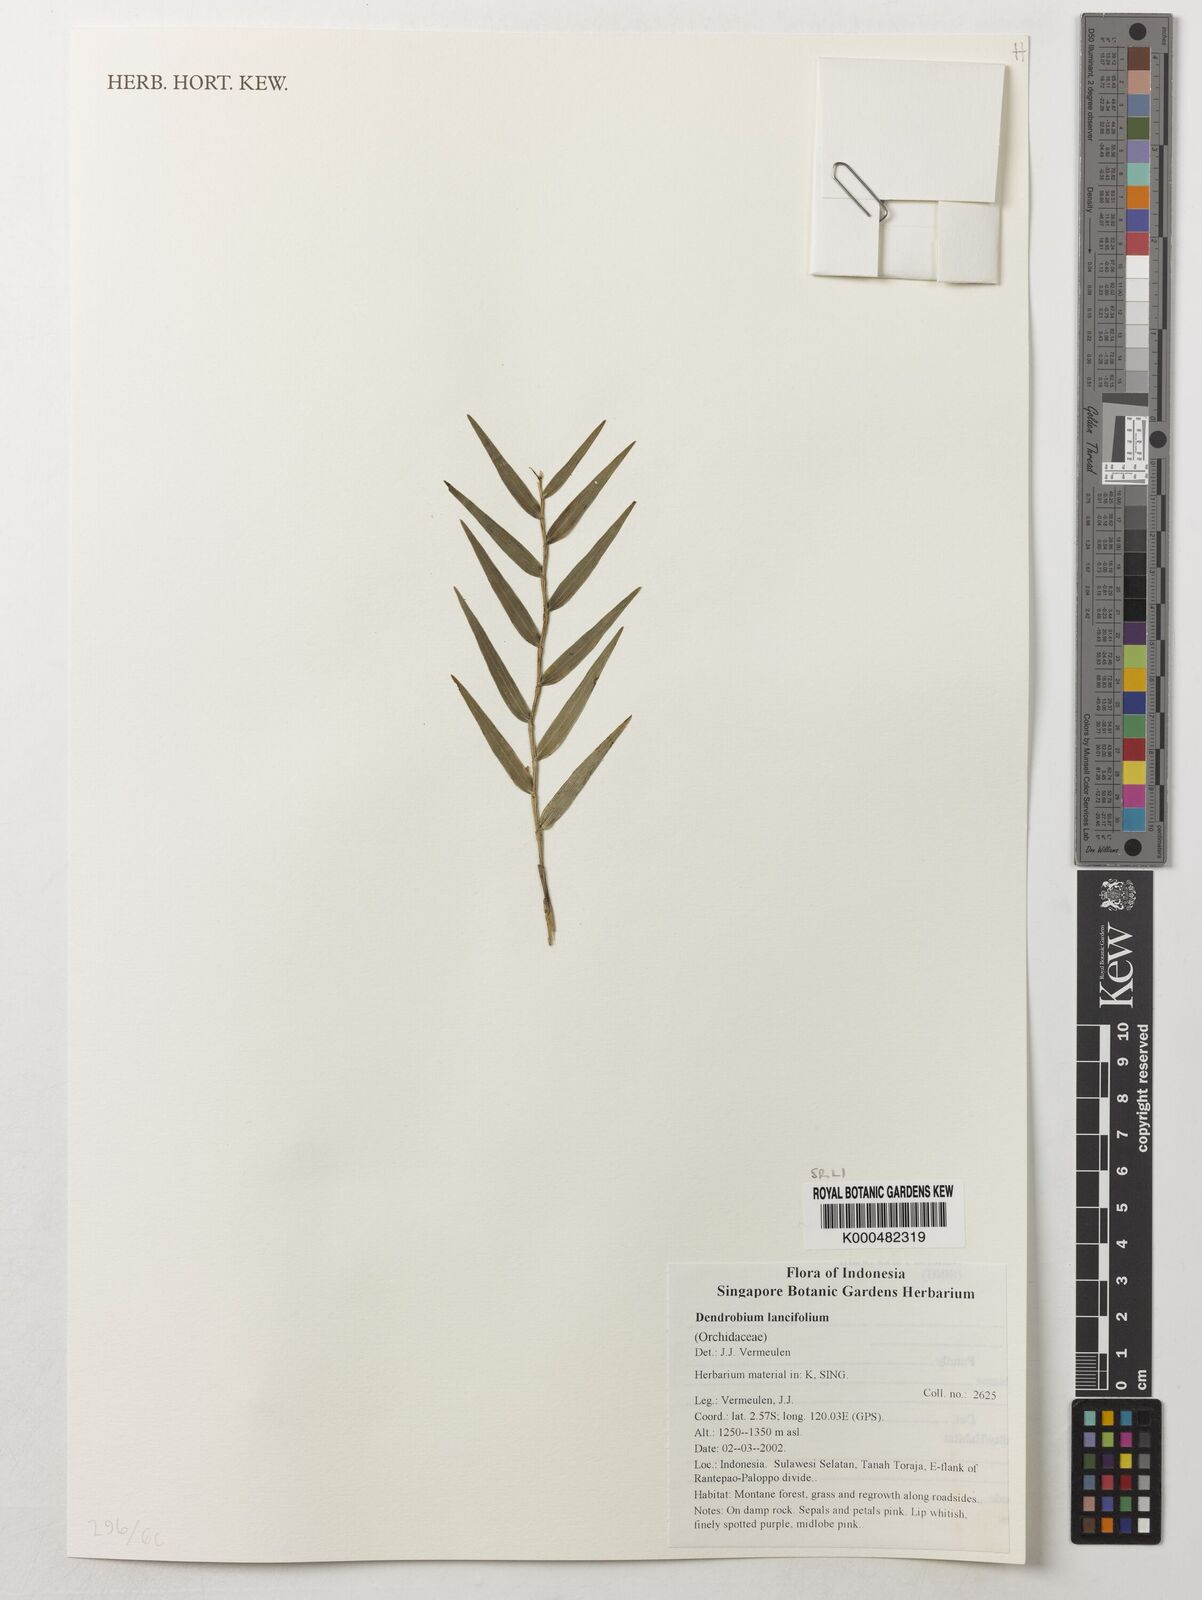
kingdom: Plantae
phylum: Tracheophyta
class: Liliopsida
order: Asparagales
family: Orchidaceae
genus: Dendrobium
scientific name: Dendrobium lanceolatum
